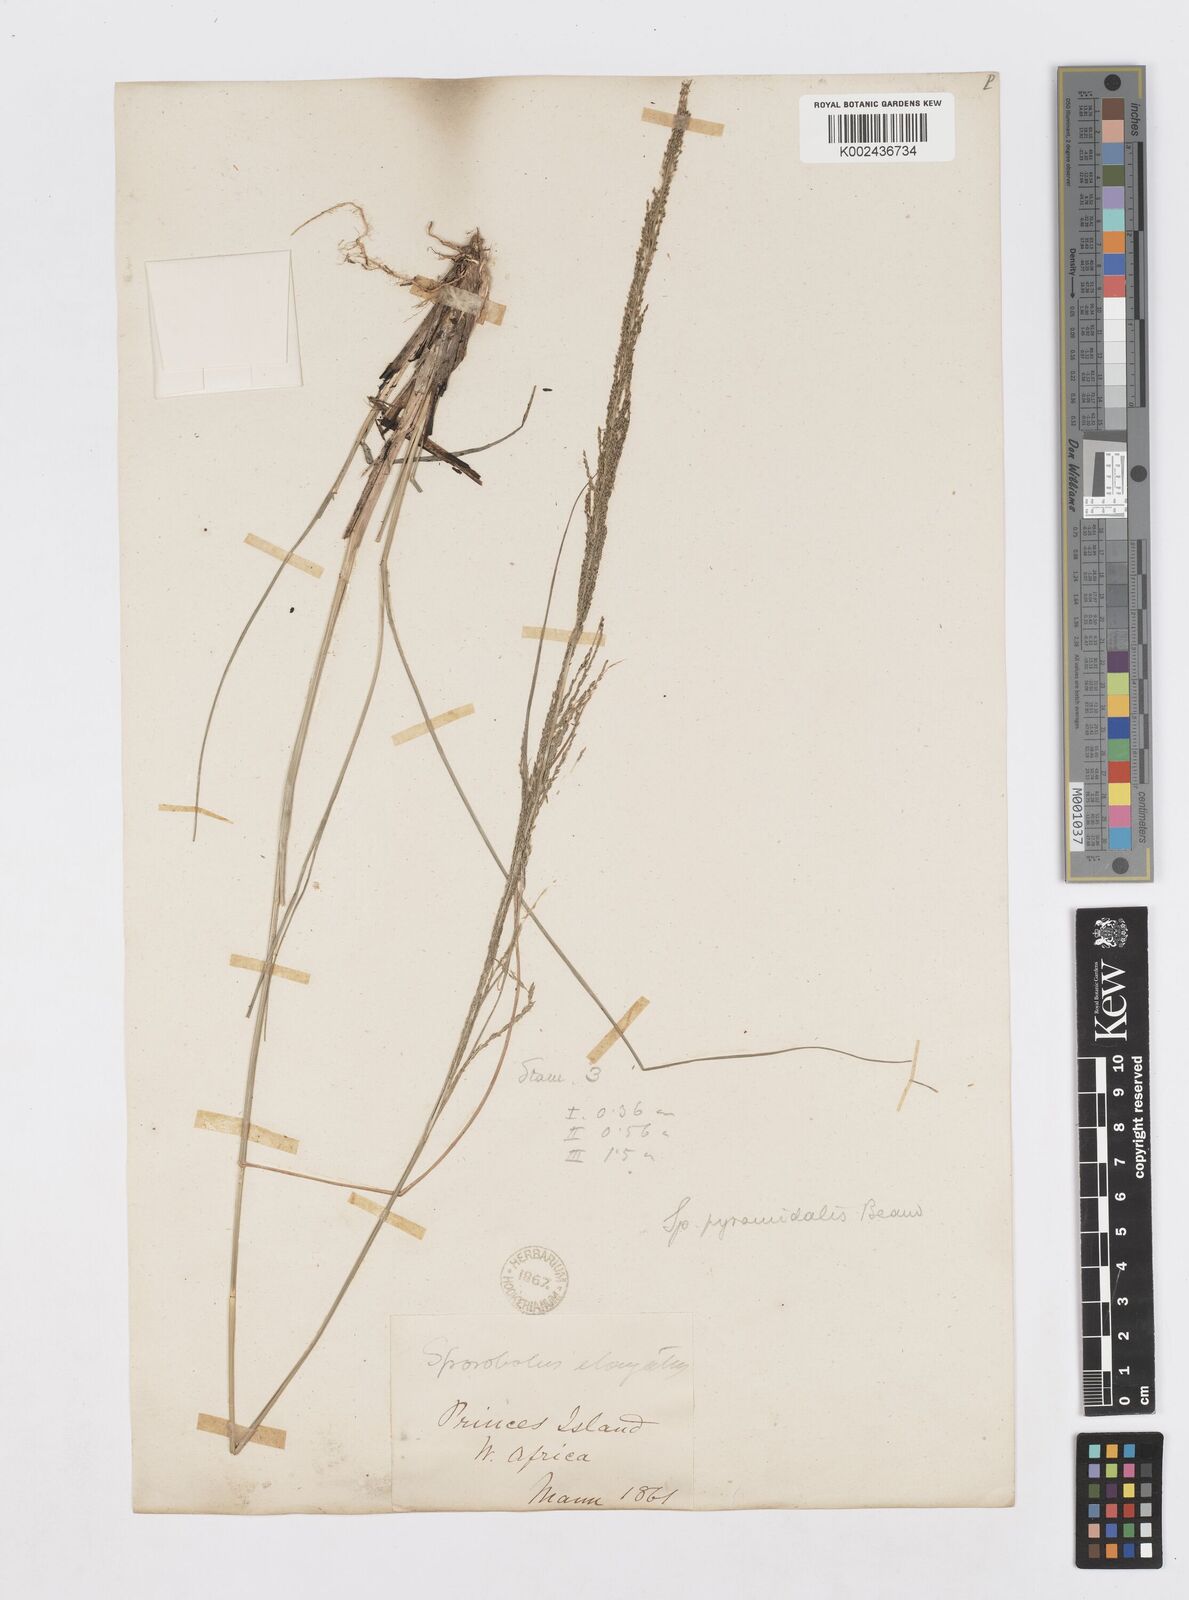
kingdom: Plantae
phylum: Tracheophyta
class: Liliopsida
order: Poales
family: Poaceae
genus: Sporobolus
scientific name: Sporobolus pyramidalis
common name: West indian dropseed
